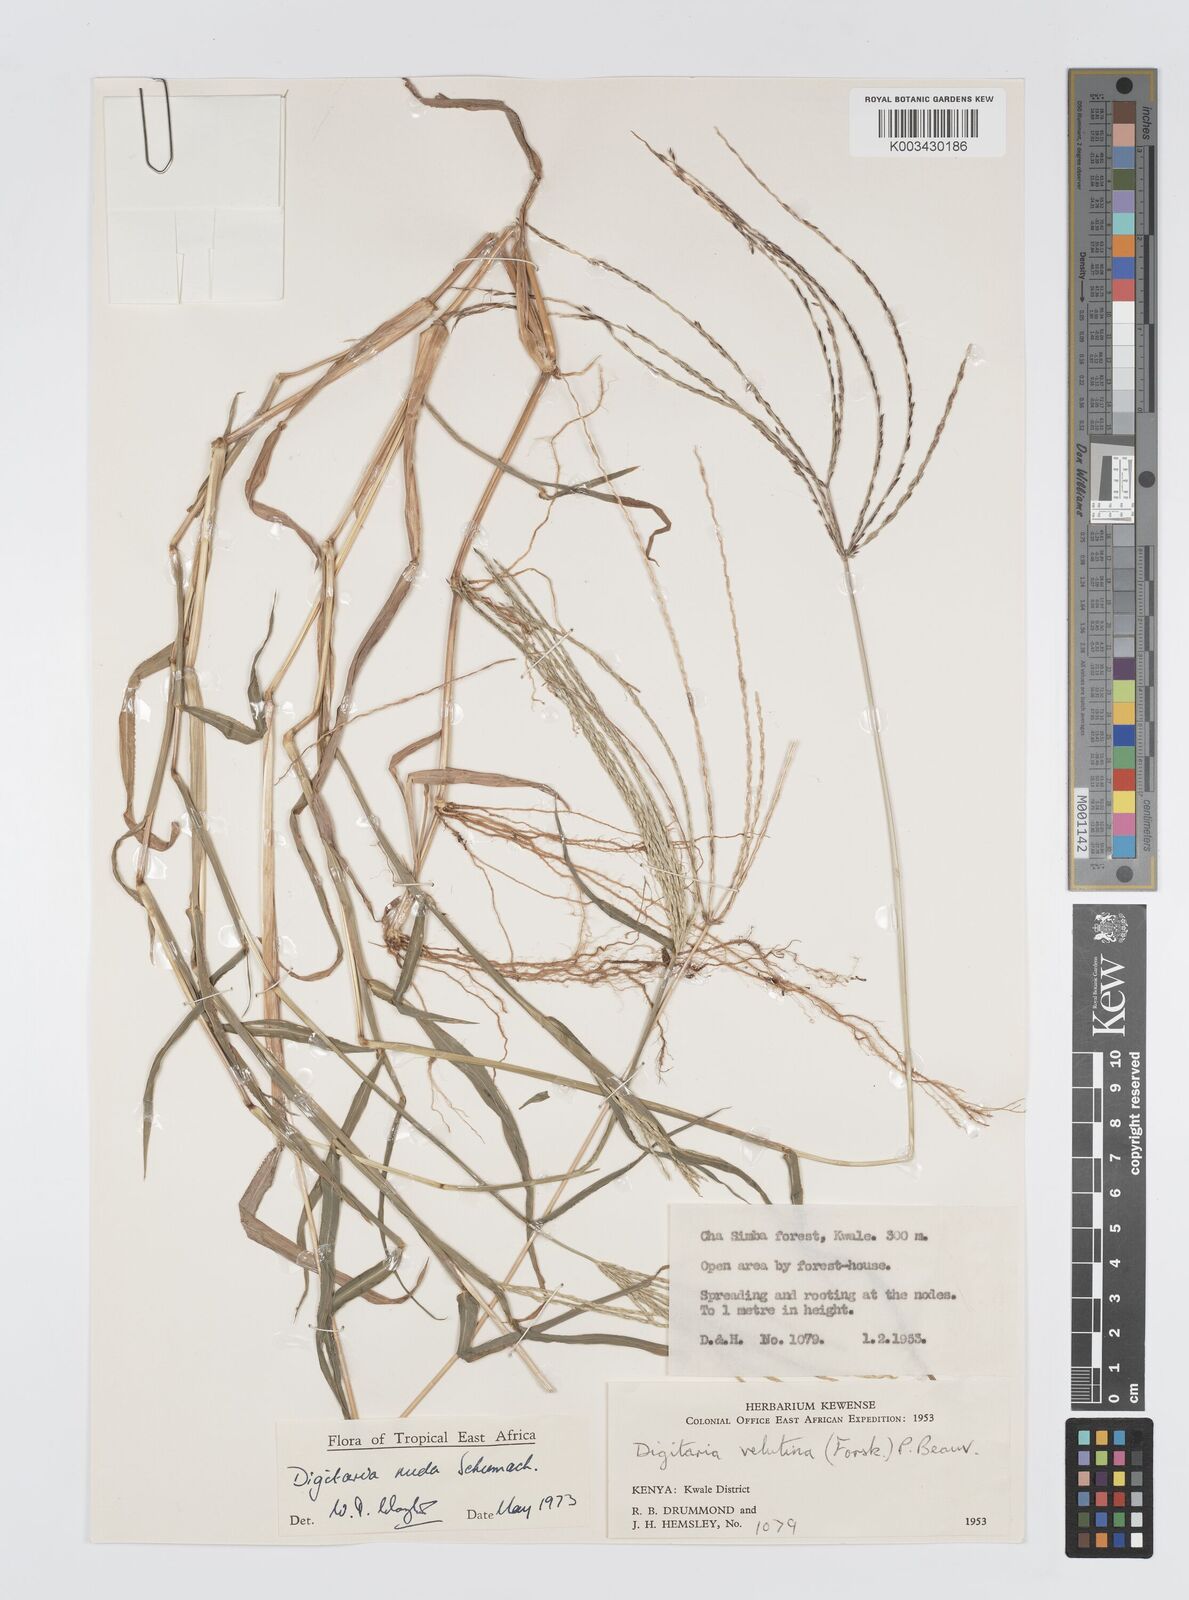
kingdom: Plantae
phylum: Tracheophyta
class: Liliopsida
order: Poales
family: Poaceae
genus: Digitaria
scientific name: Digitaria nuda
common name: Naked crabgrass
